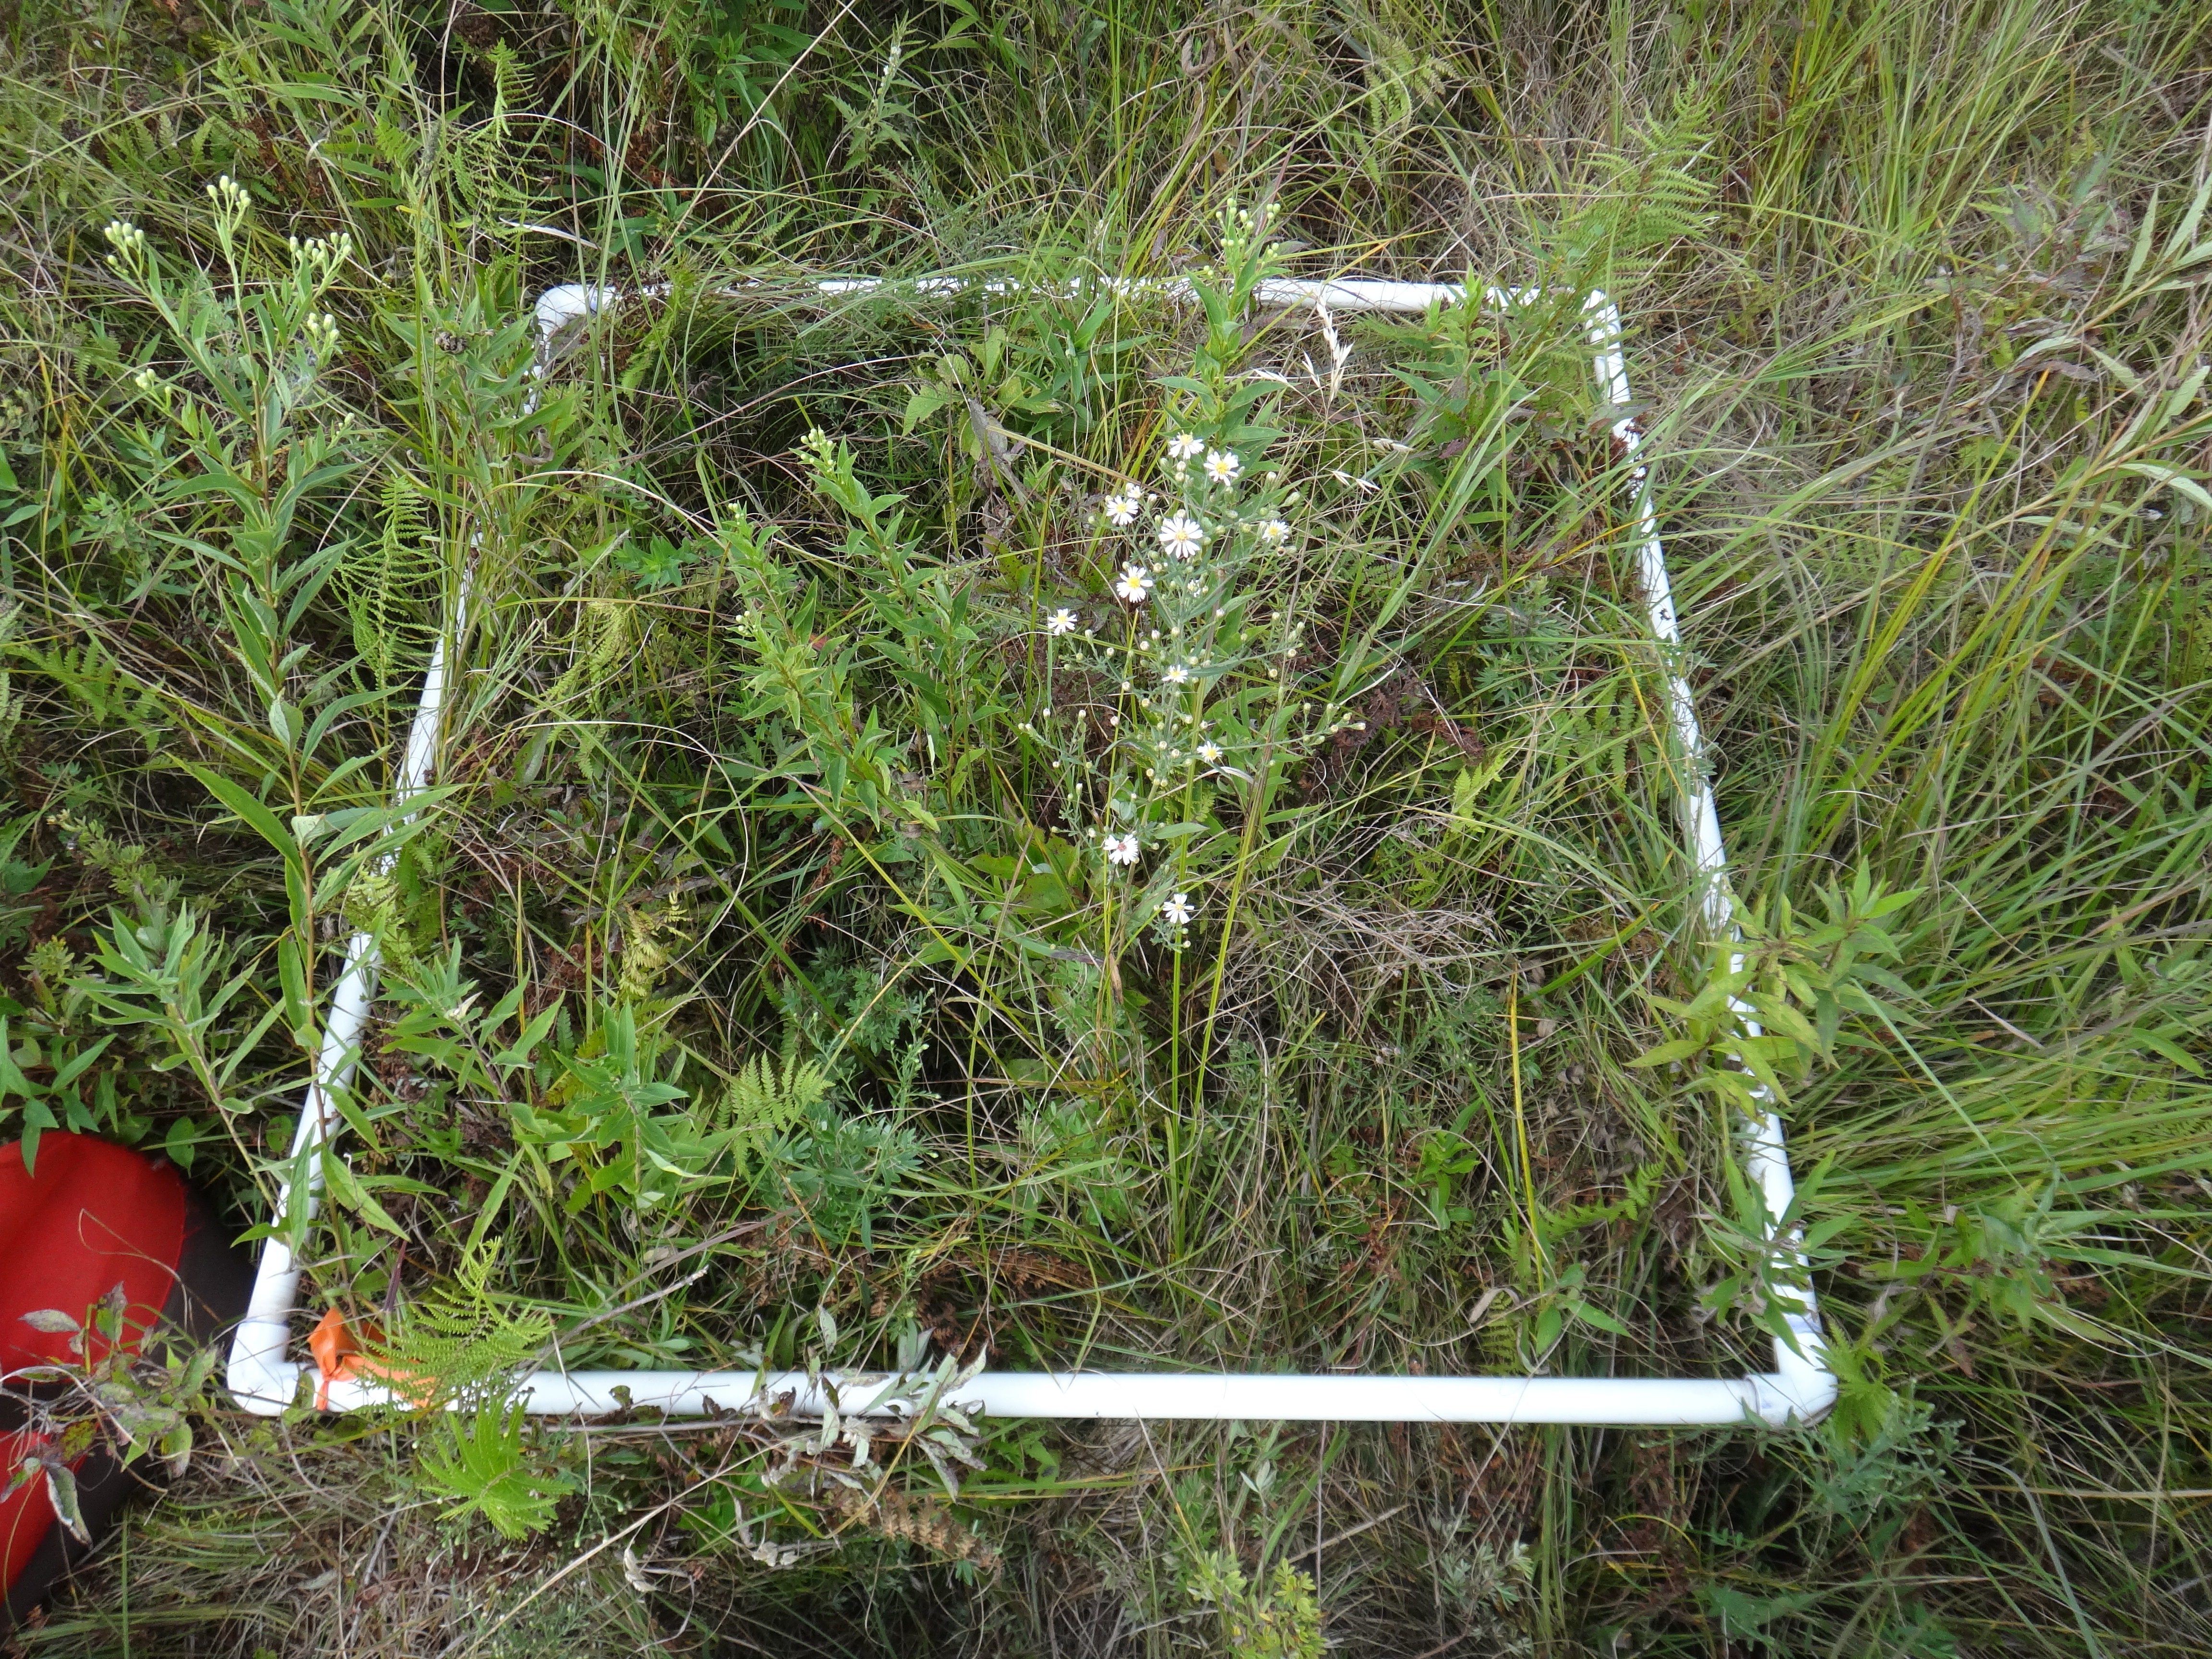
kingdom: Plantae
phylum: Tracheophyta
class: Magnoliopsida
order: Asterales
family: Asteraceae
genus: Symphyotrichum
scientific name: Symphyotrichum boreale
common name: Northern bog aster
